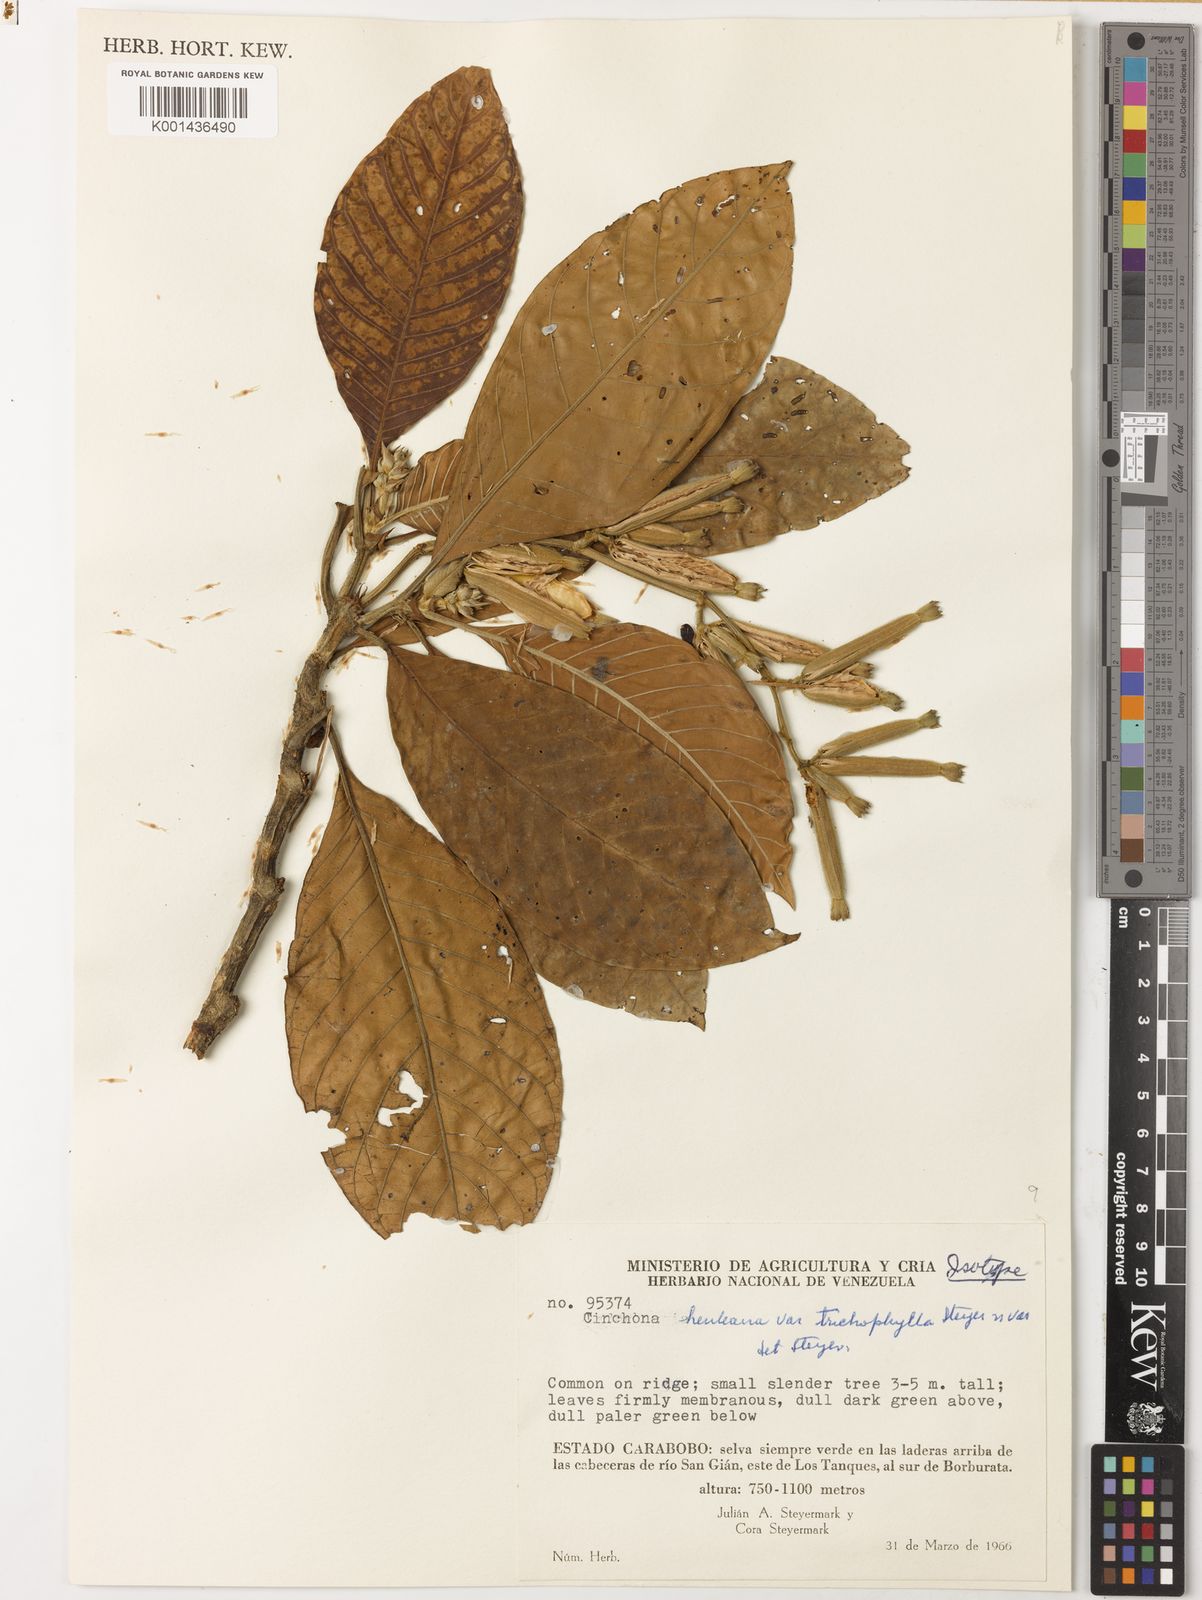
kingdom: Plantae
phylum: Tracheophyta
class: Magnoliopsida
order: Gentianales
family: Rubiaceae
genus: Ladenbergia
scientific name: Ladenbergia muzonensis
